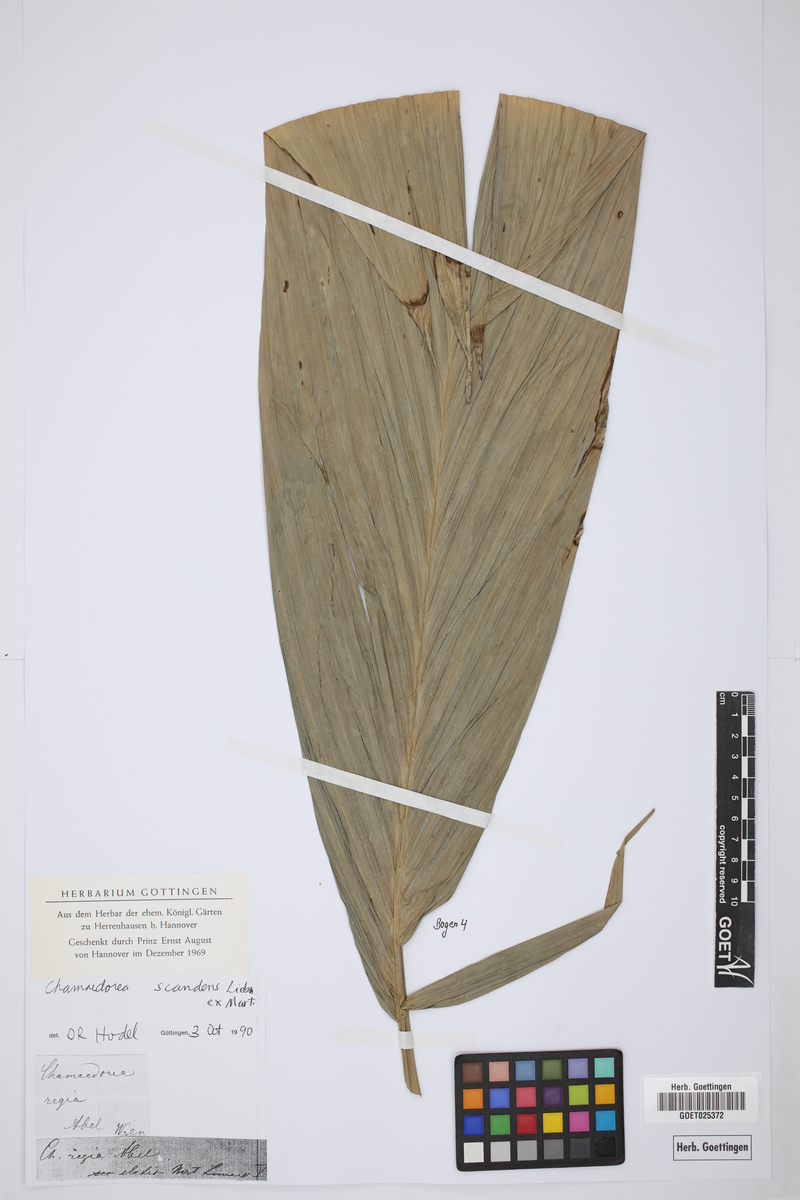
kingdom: Plantae
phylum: Tracheophyta
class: Liliopsida
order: Arecales
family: Arecaceae
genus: Chamaedorea
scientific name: Chamaedorea elatior
